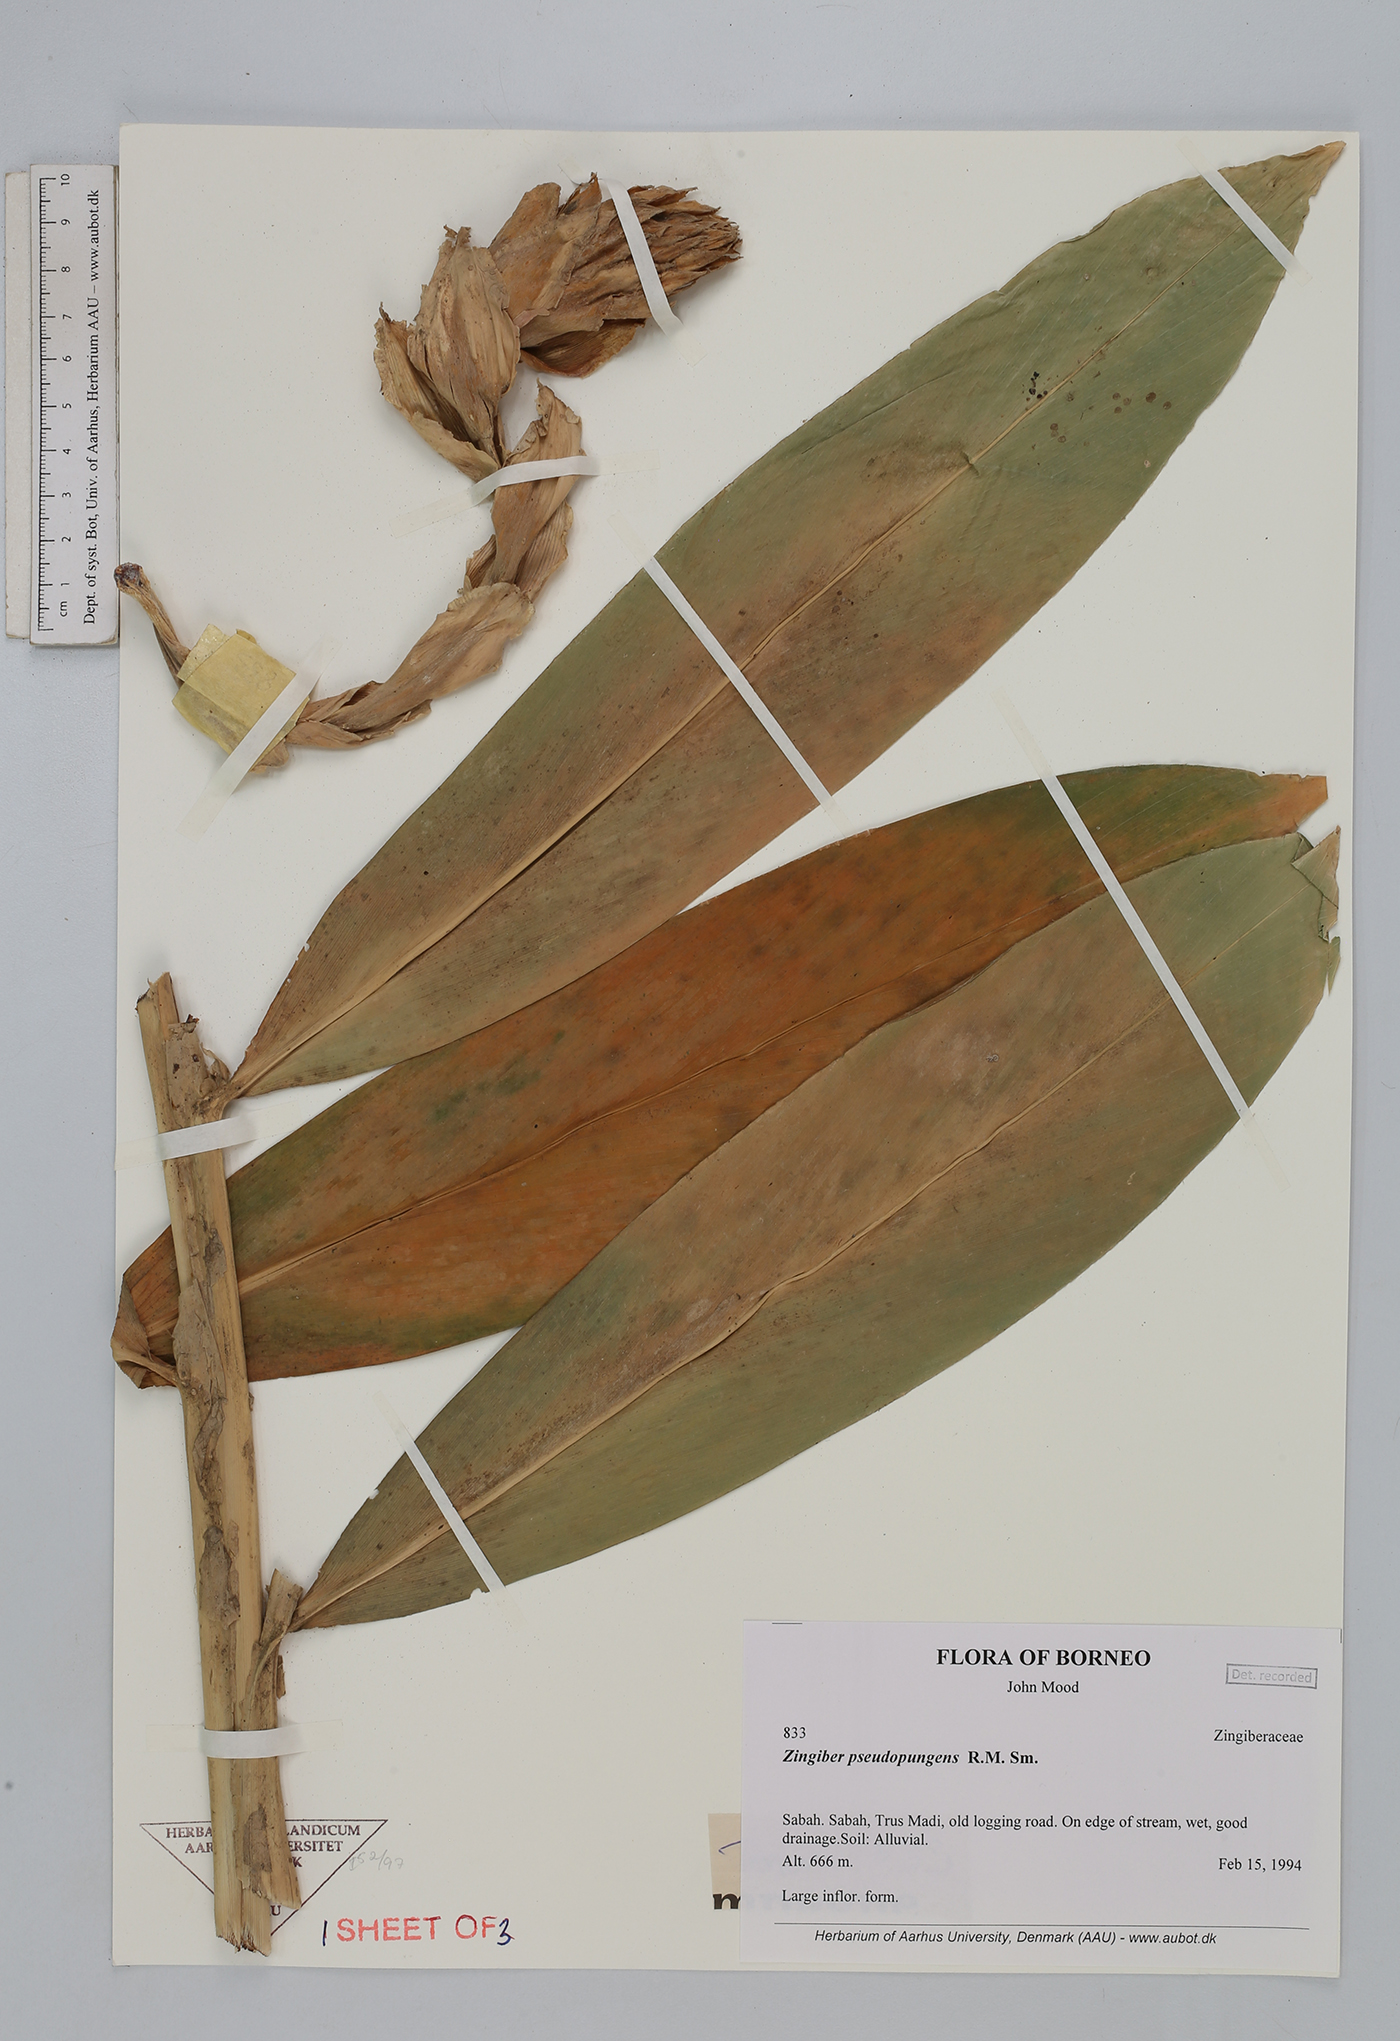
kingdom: Plantae
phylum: Tracheophyta
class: Liliopsida
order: Zingiberales
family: Zingiberaceae
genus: Zingiber
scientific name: Zingiber pseudopungens
